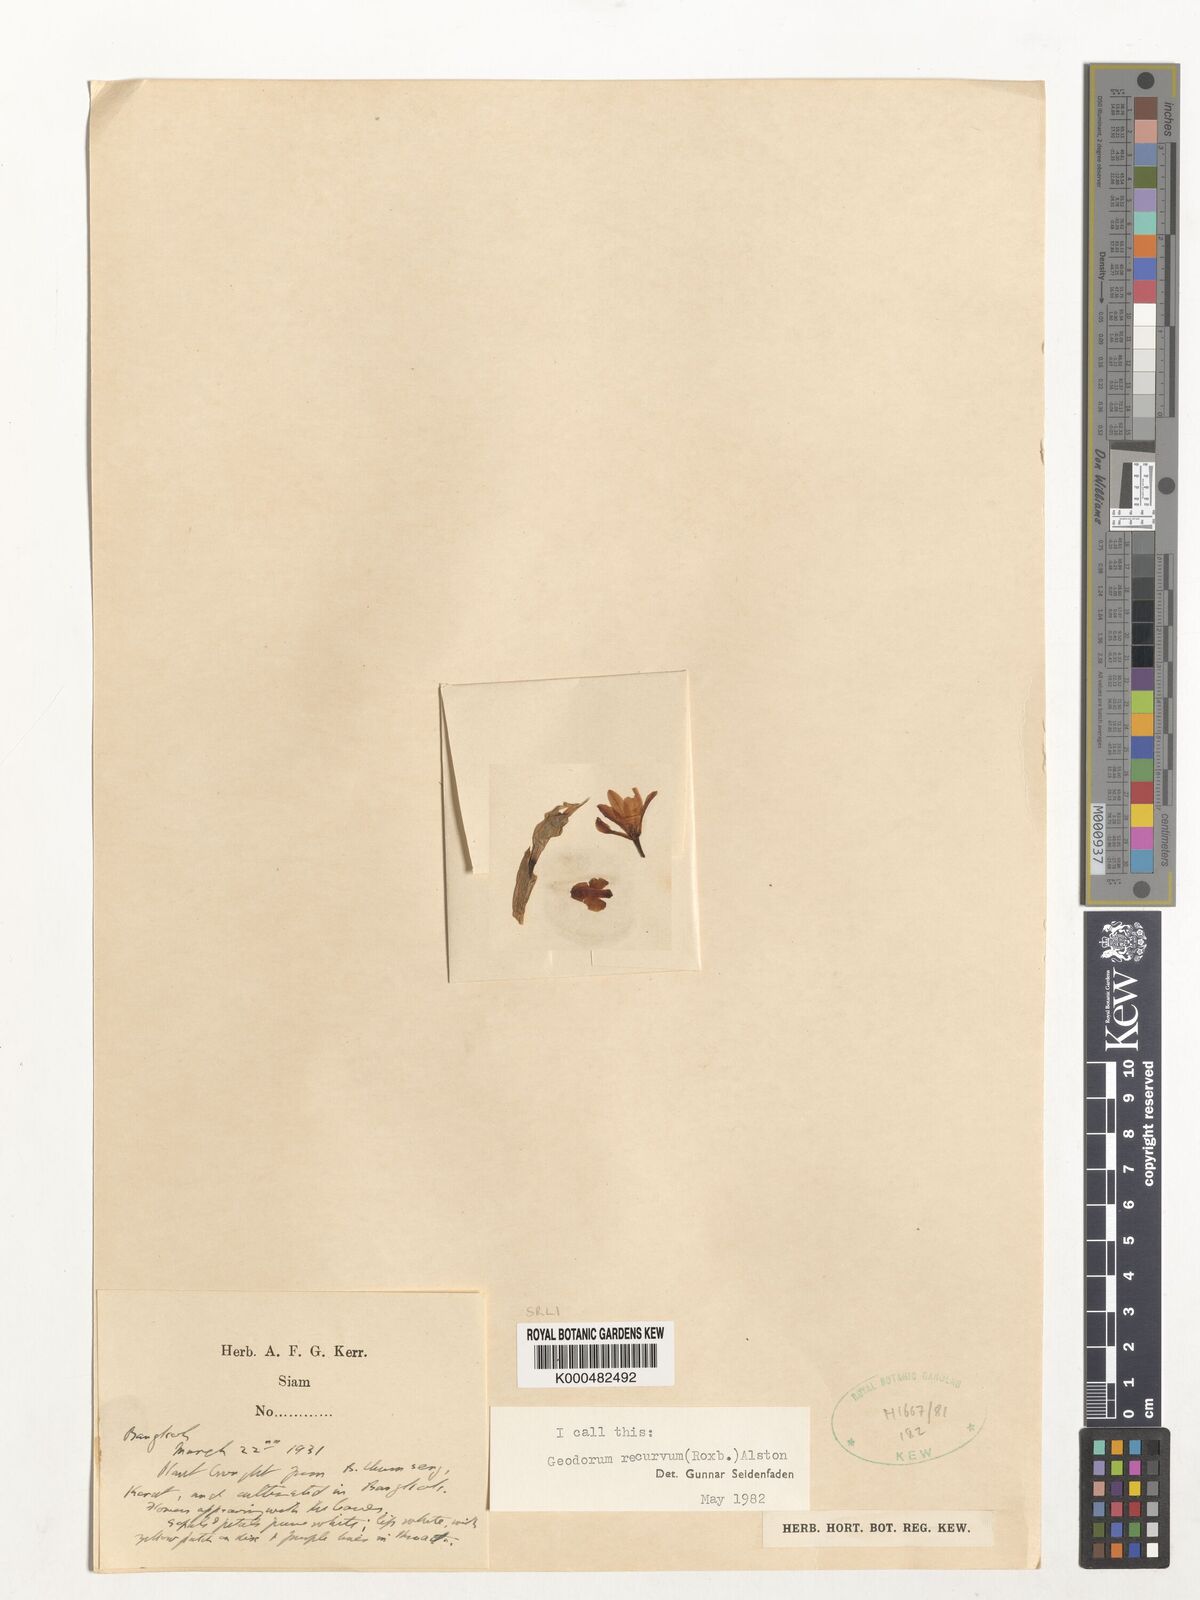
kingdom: Plantae
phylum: Tracheophyta
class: Liliopsida
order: Asparagales
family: Orchidaceae
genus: Eulophia
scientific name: Eulophia recurva
